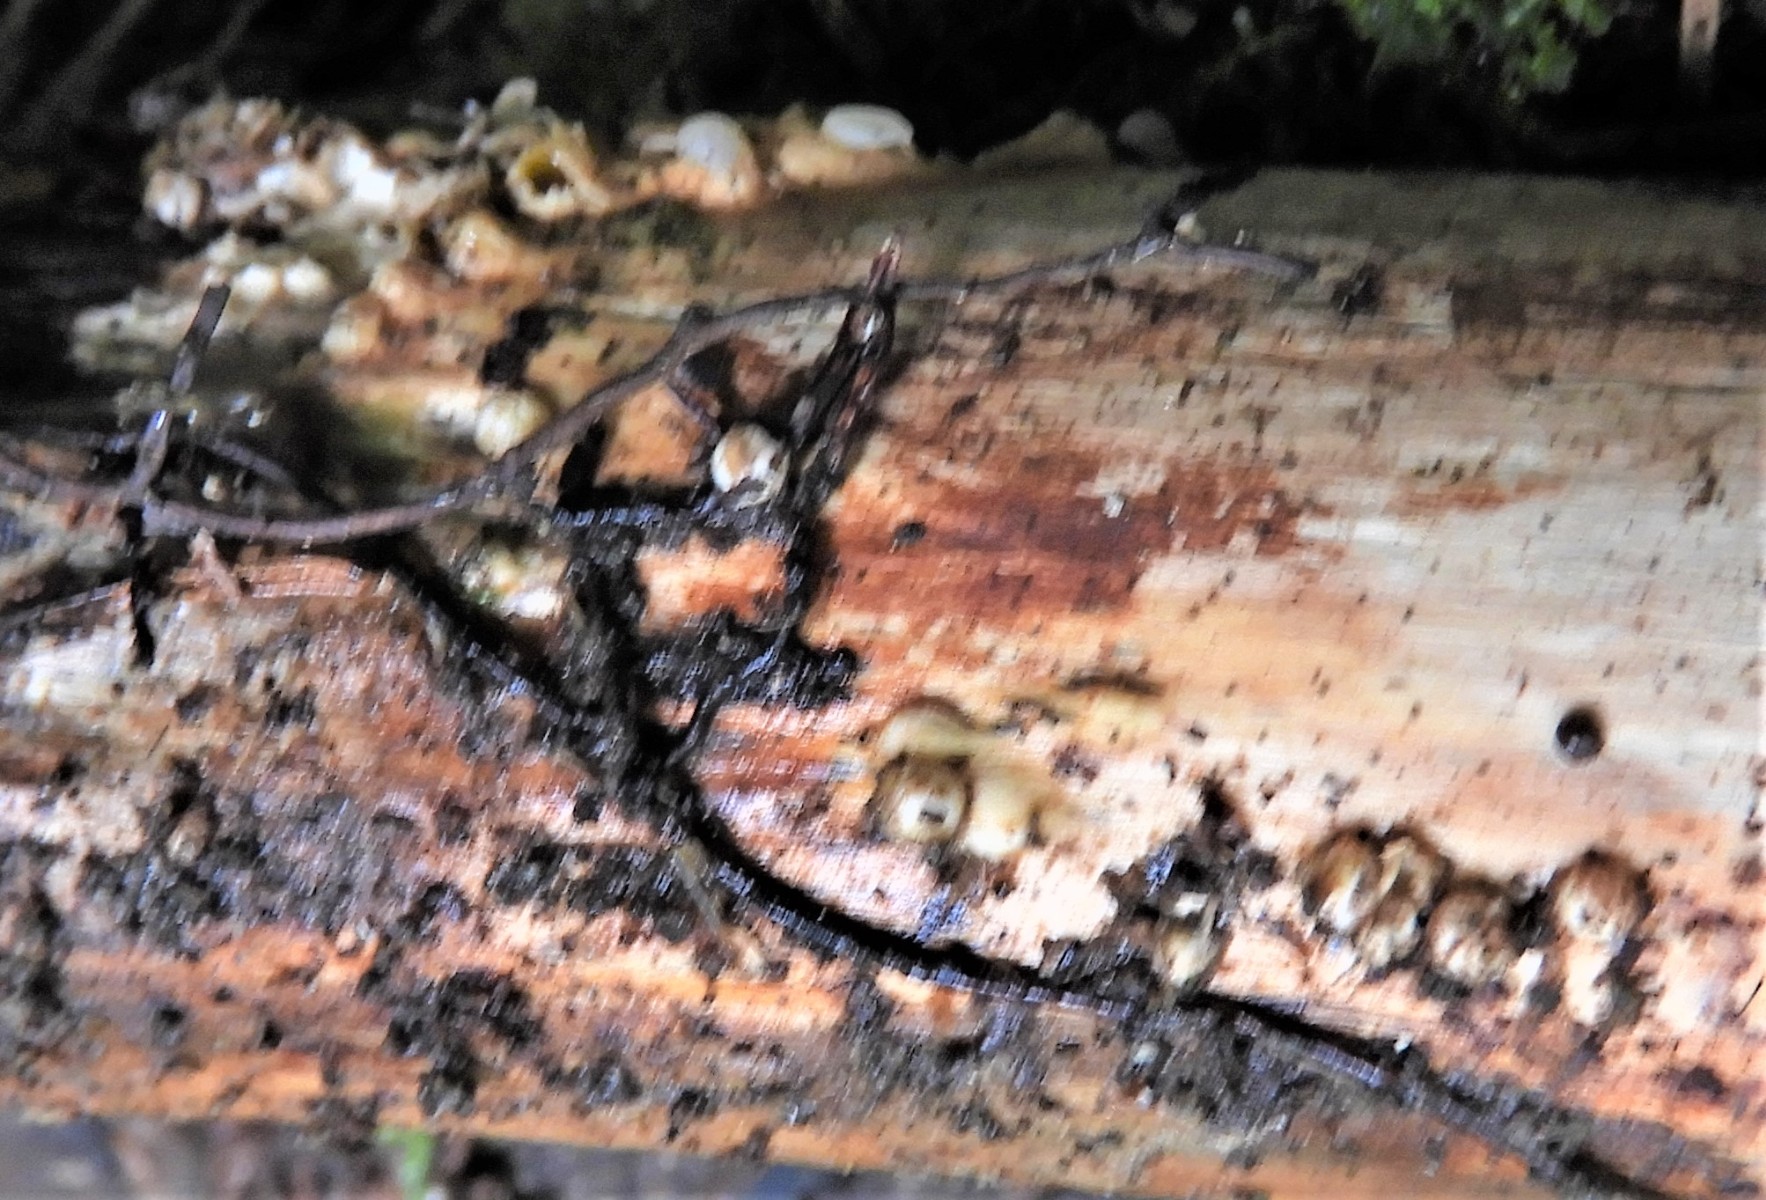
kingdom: Fungi
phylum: Basidiomycota
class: Agaricomycetes
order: Geastrales
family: Geastraceae
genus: Sphaerobolus
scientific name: Sphaerobolus stellatus
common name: bombekaster
